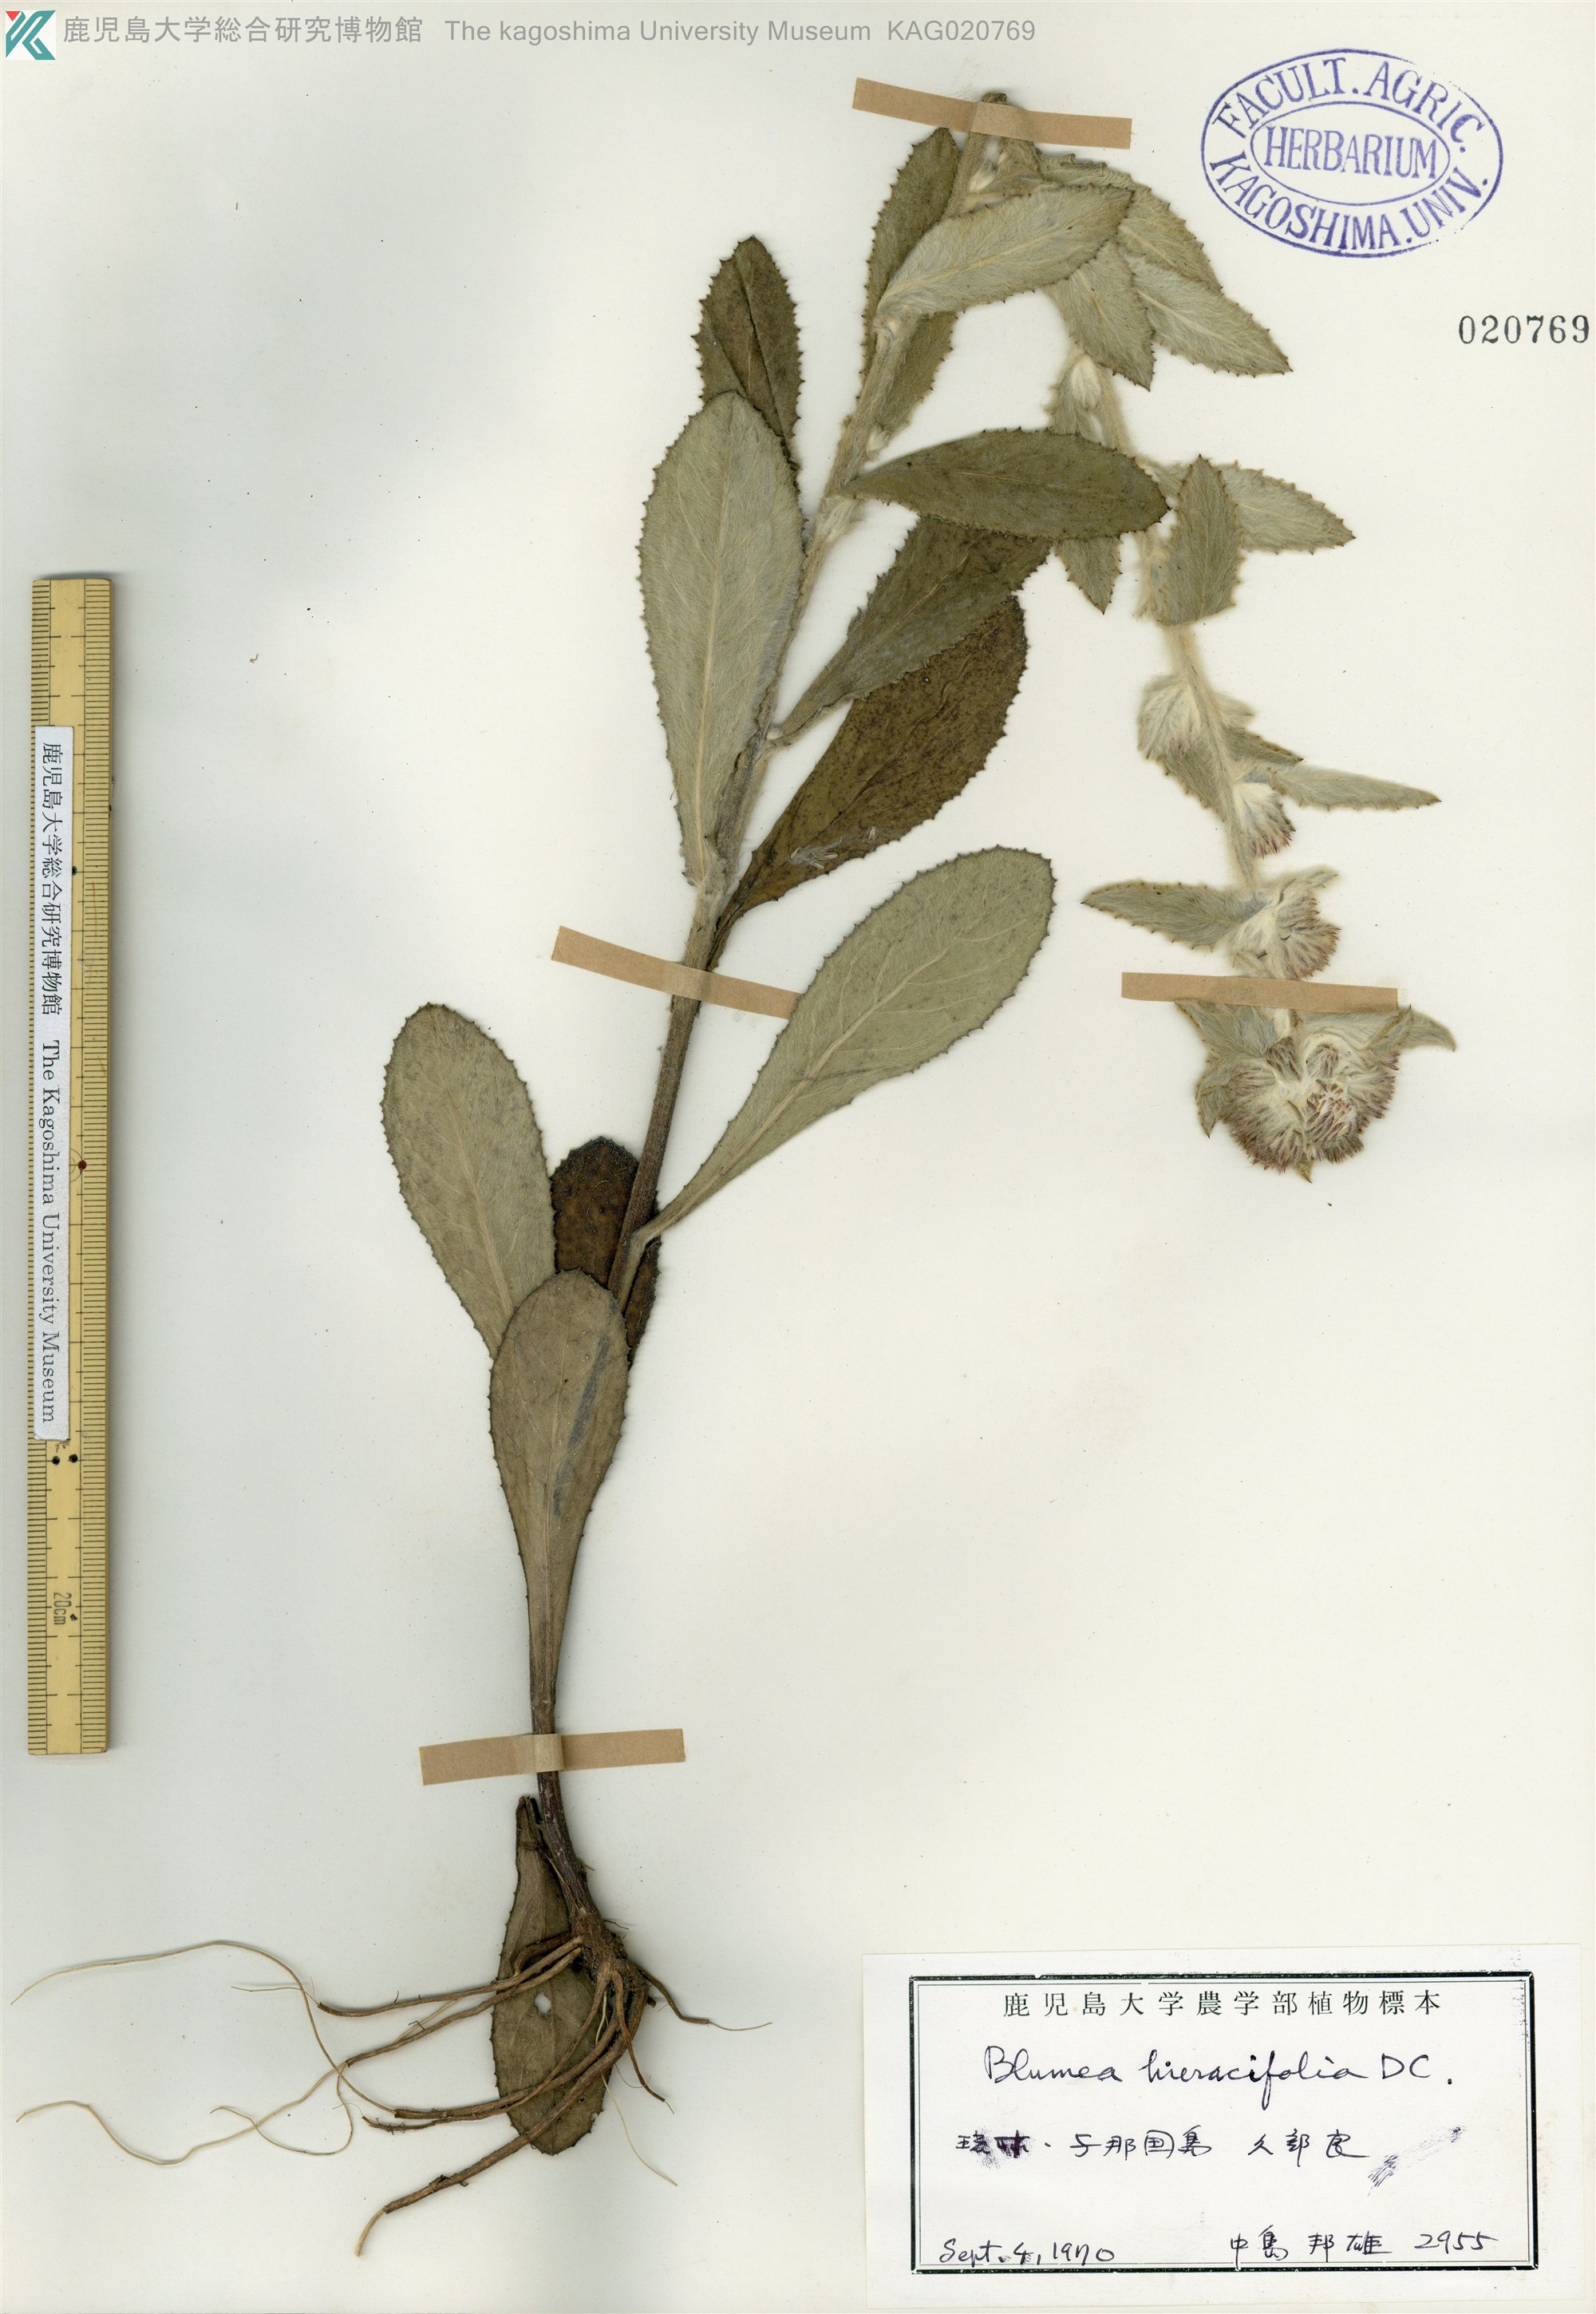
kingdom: Plantae
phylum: Tracheophyta
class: Magnoliopsida
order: Asterales
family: Asteraceae
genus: Blumea
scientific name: Blumea hieraciifolia
